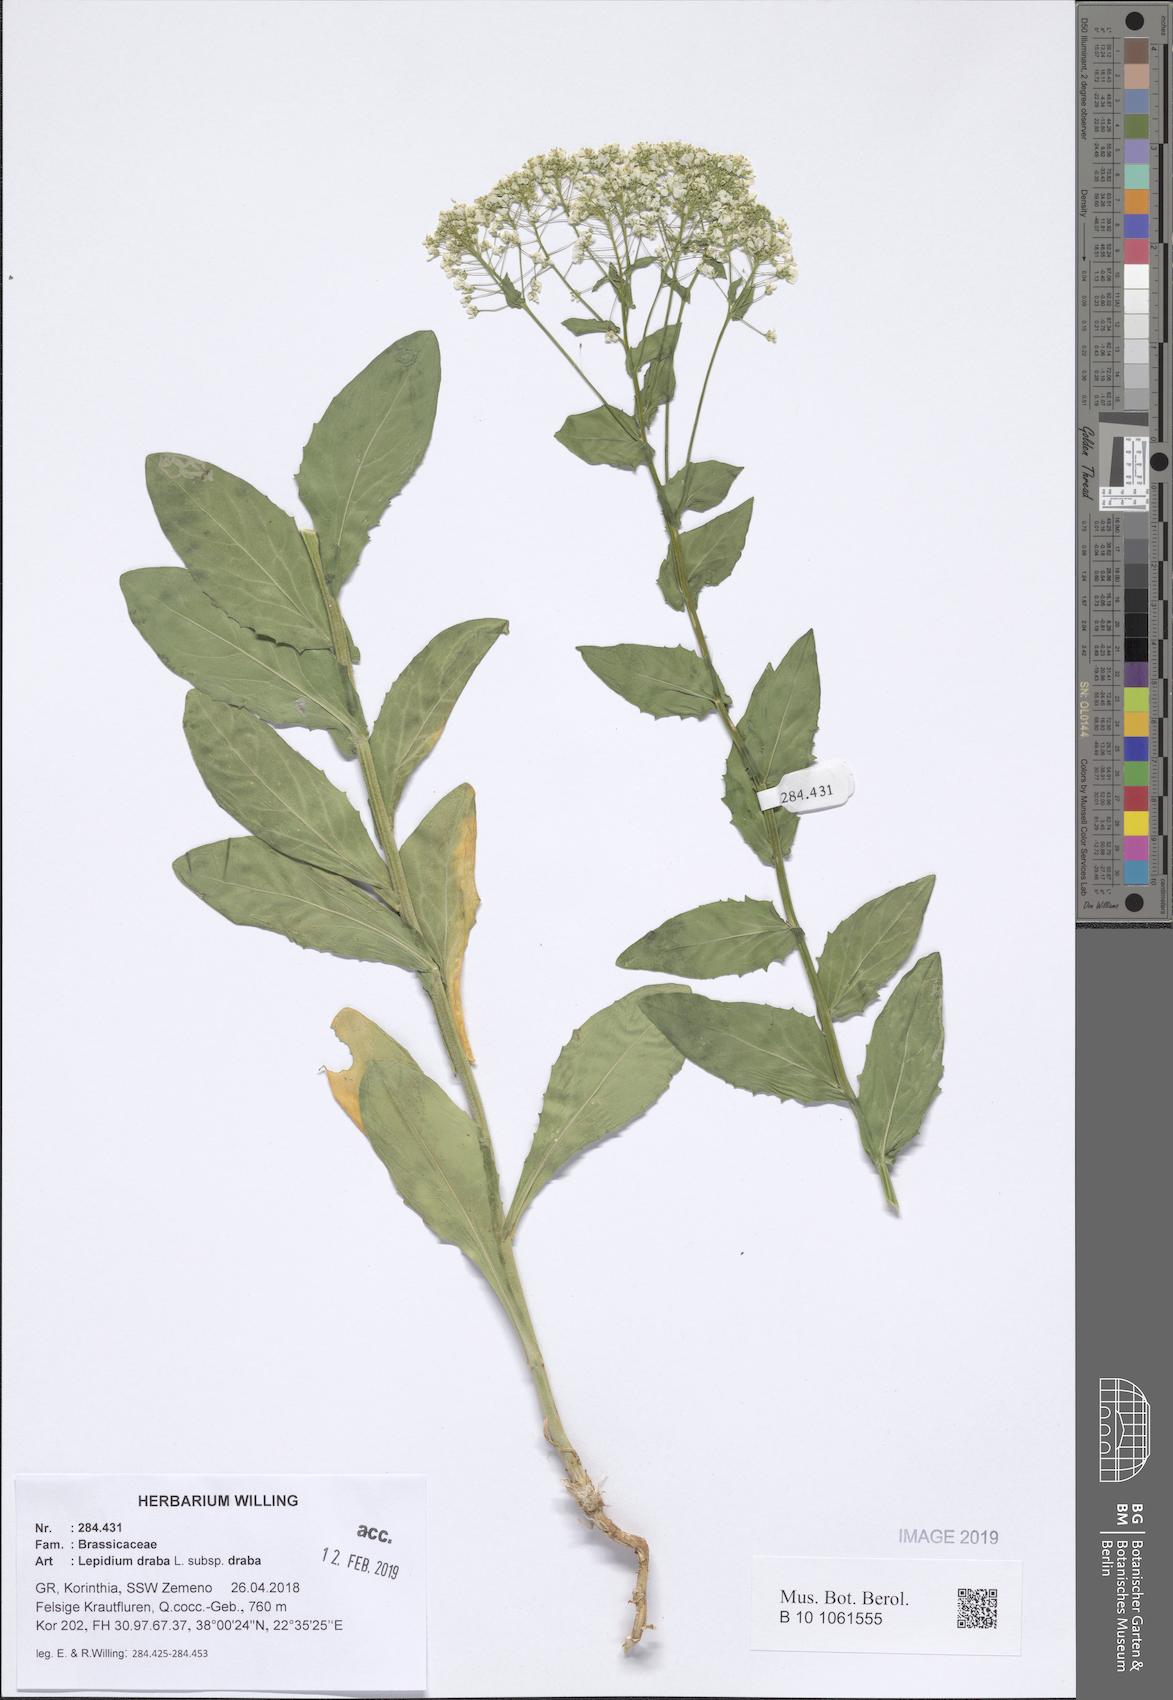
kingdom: Plantae
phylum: Tracheophyta
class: Magnoliopsida
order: Brassicales
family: Brassicaceae
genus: Lepidium
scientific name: Lepidium draba
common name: Hoary cress
